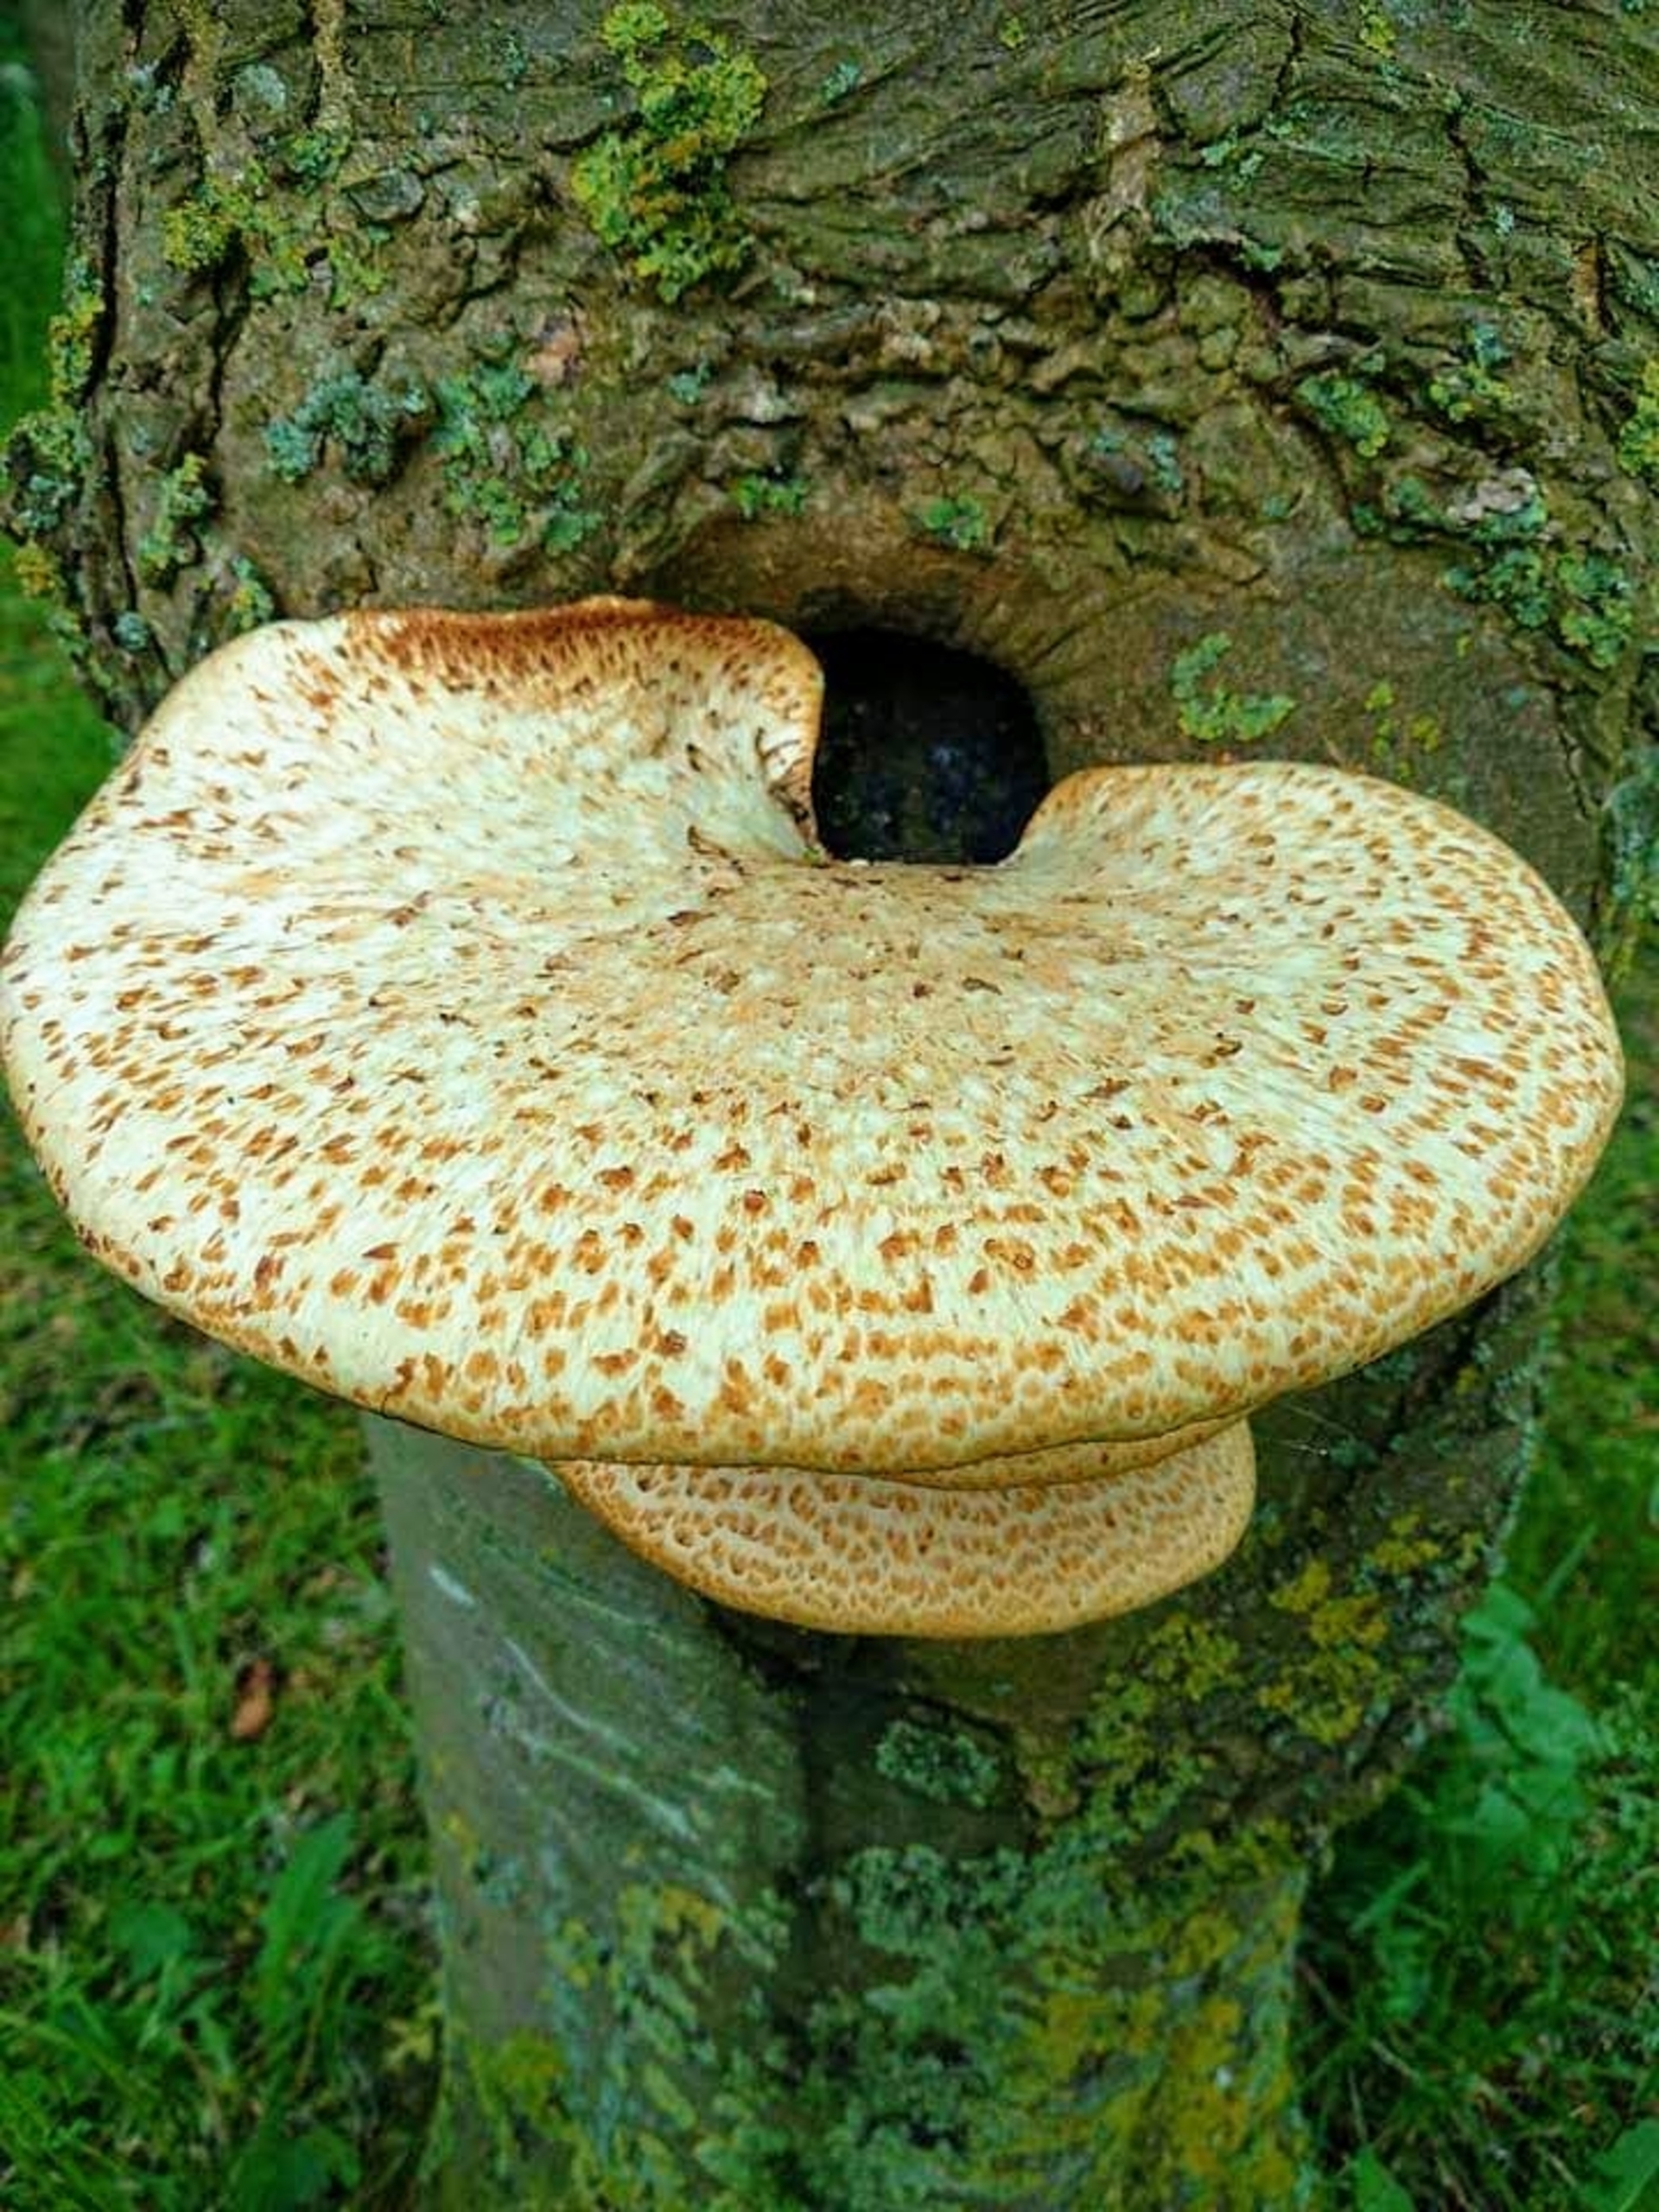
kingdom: Fungi
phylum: Basidiomycota
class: Agaricomycetes
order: Polyporales
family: Polyporaceae
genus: Cerioporus
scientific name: Cerioporus squamosus
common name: Skællet stilkporesvamp
